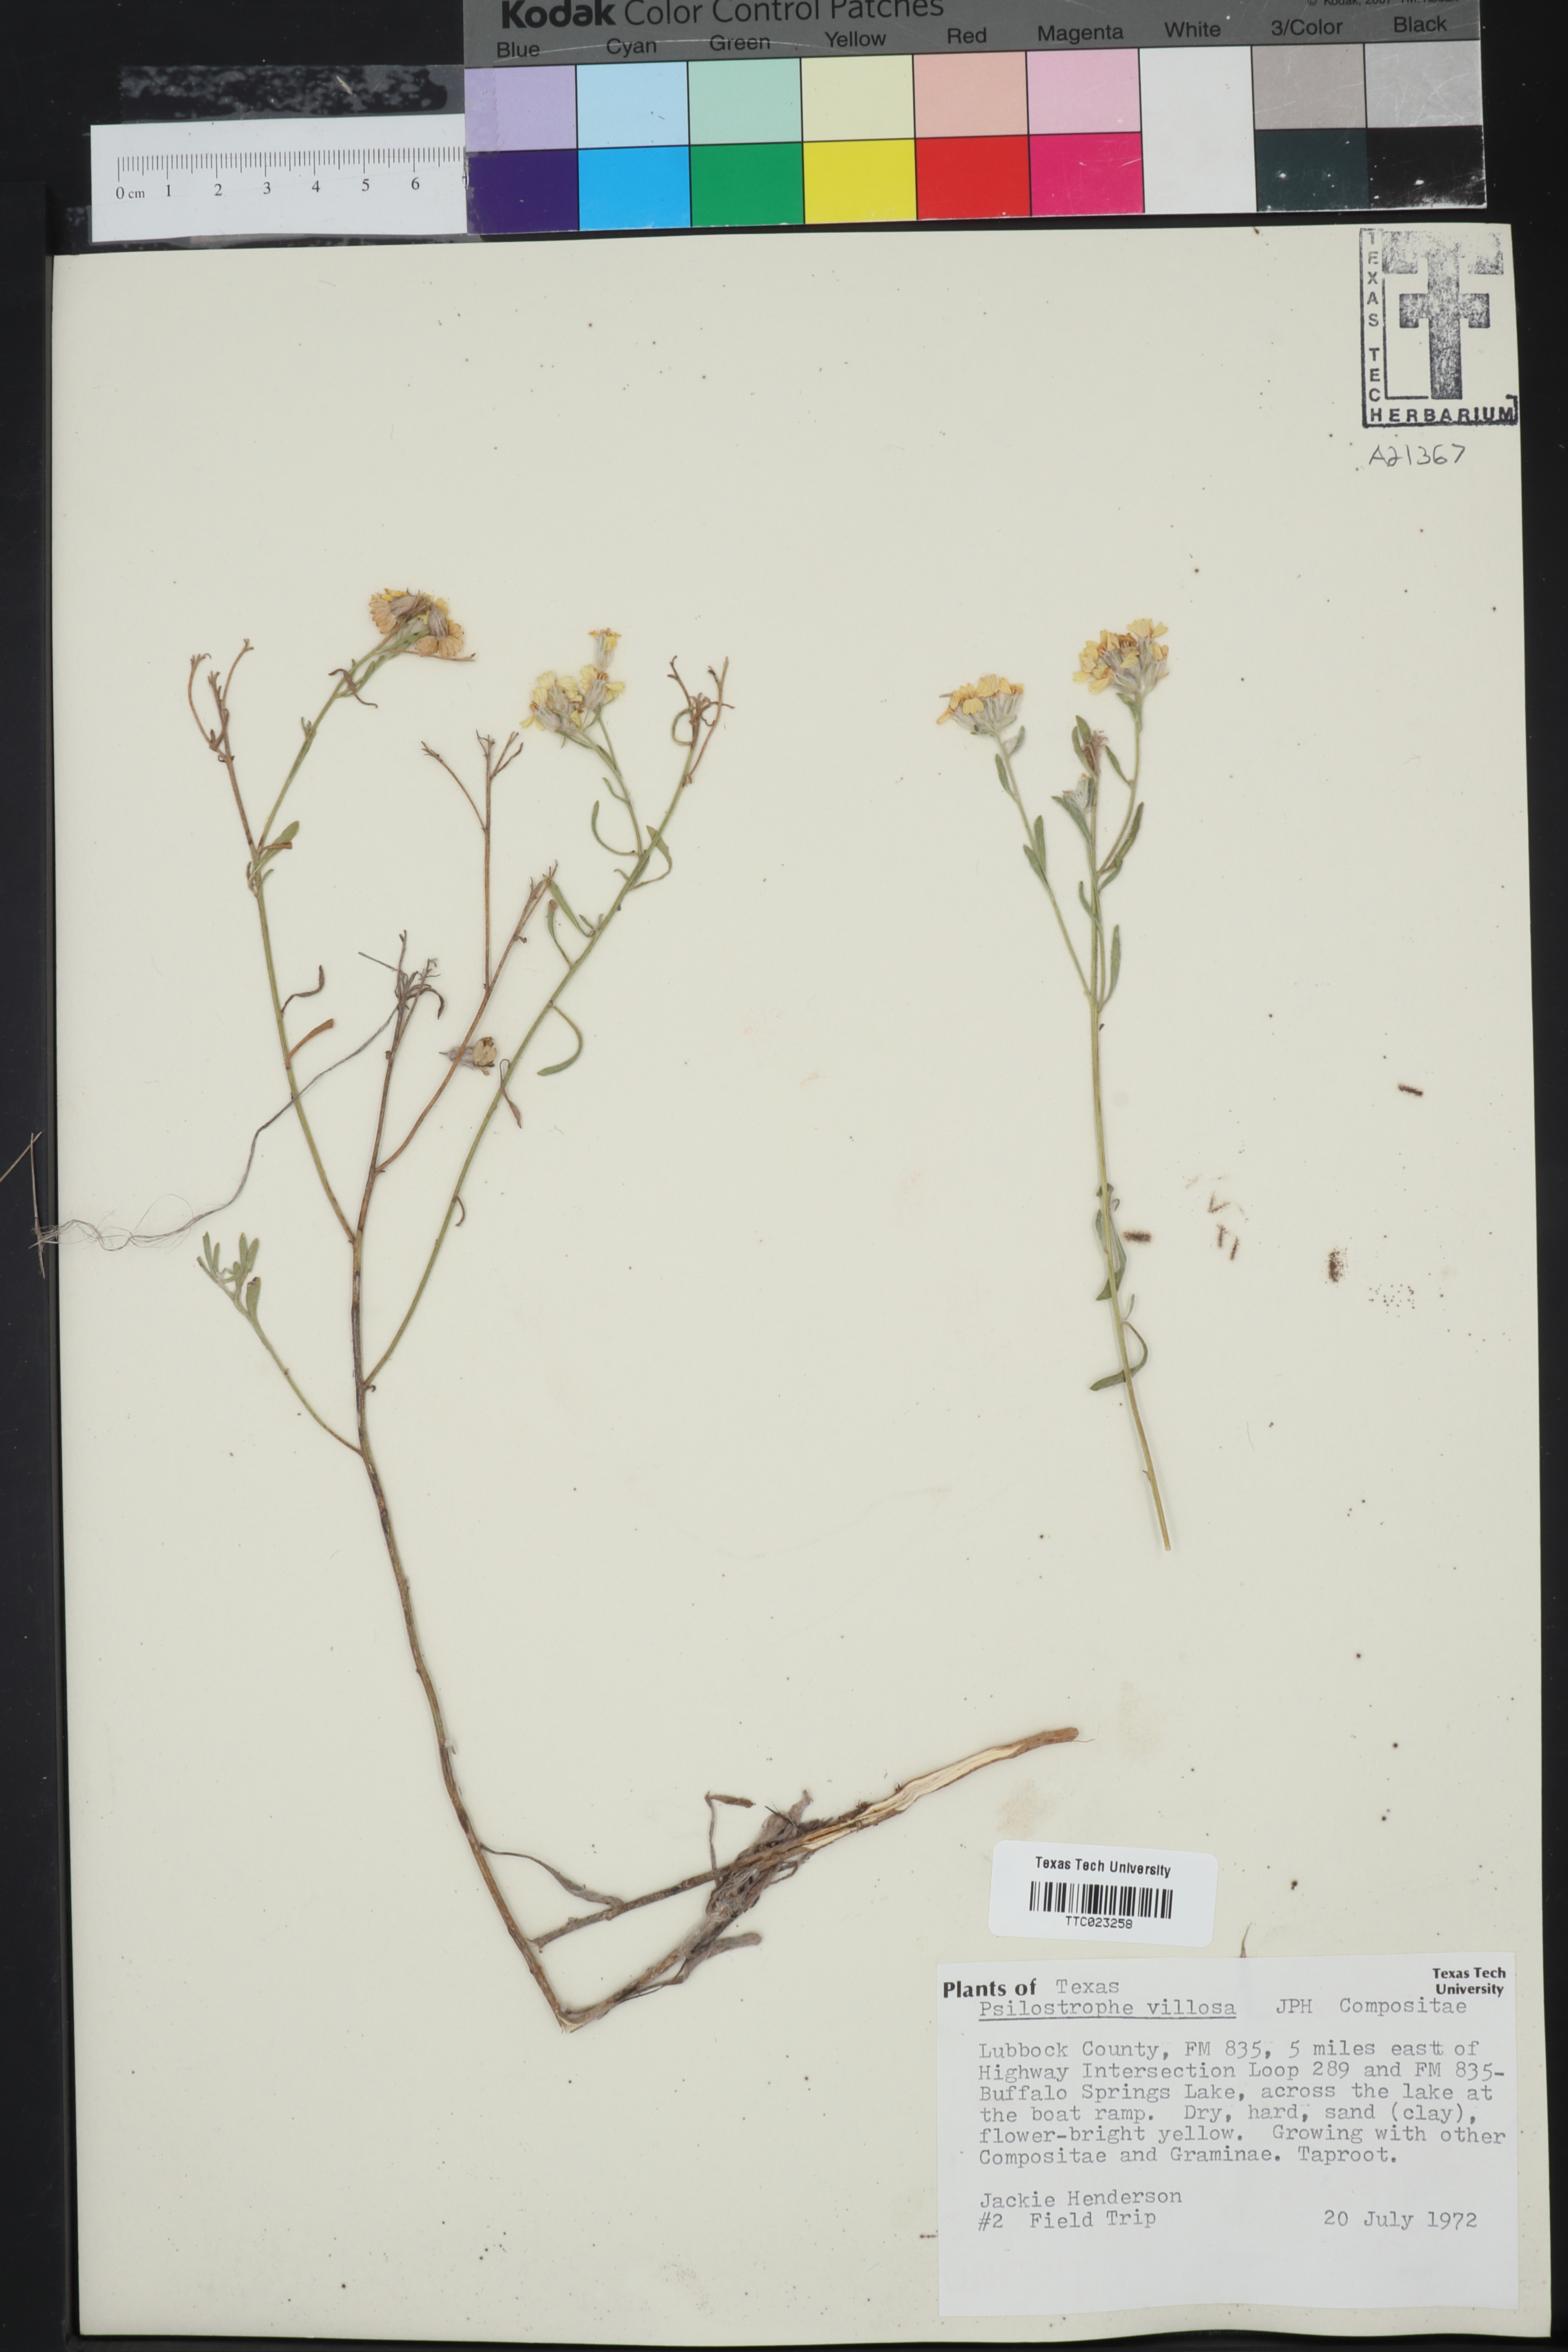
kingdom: Plantae
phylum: Tracheophyta
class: Magnoliopsida
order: Asterales
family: Asteraceae
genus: Psilostrophe
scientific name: Psilostrophe villosa
